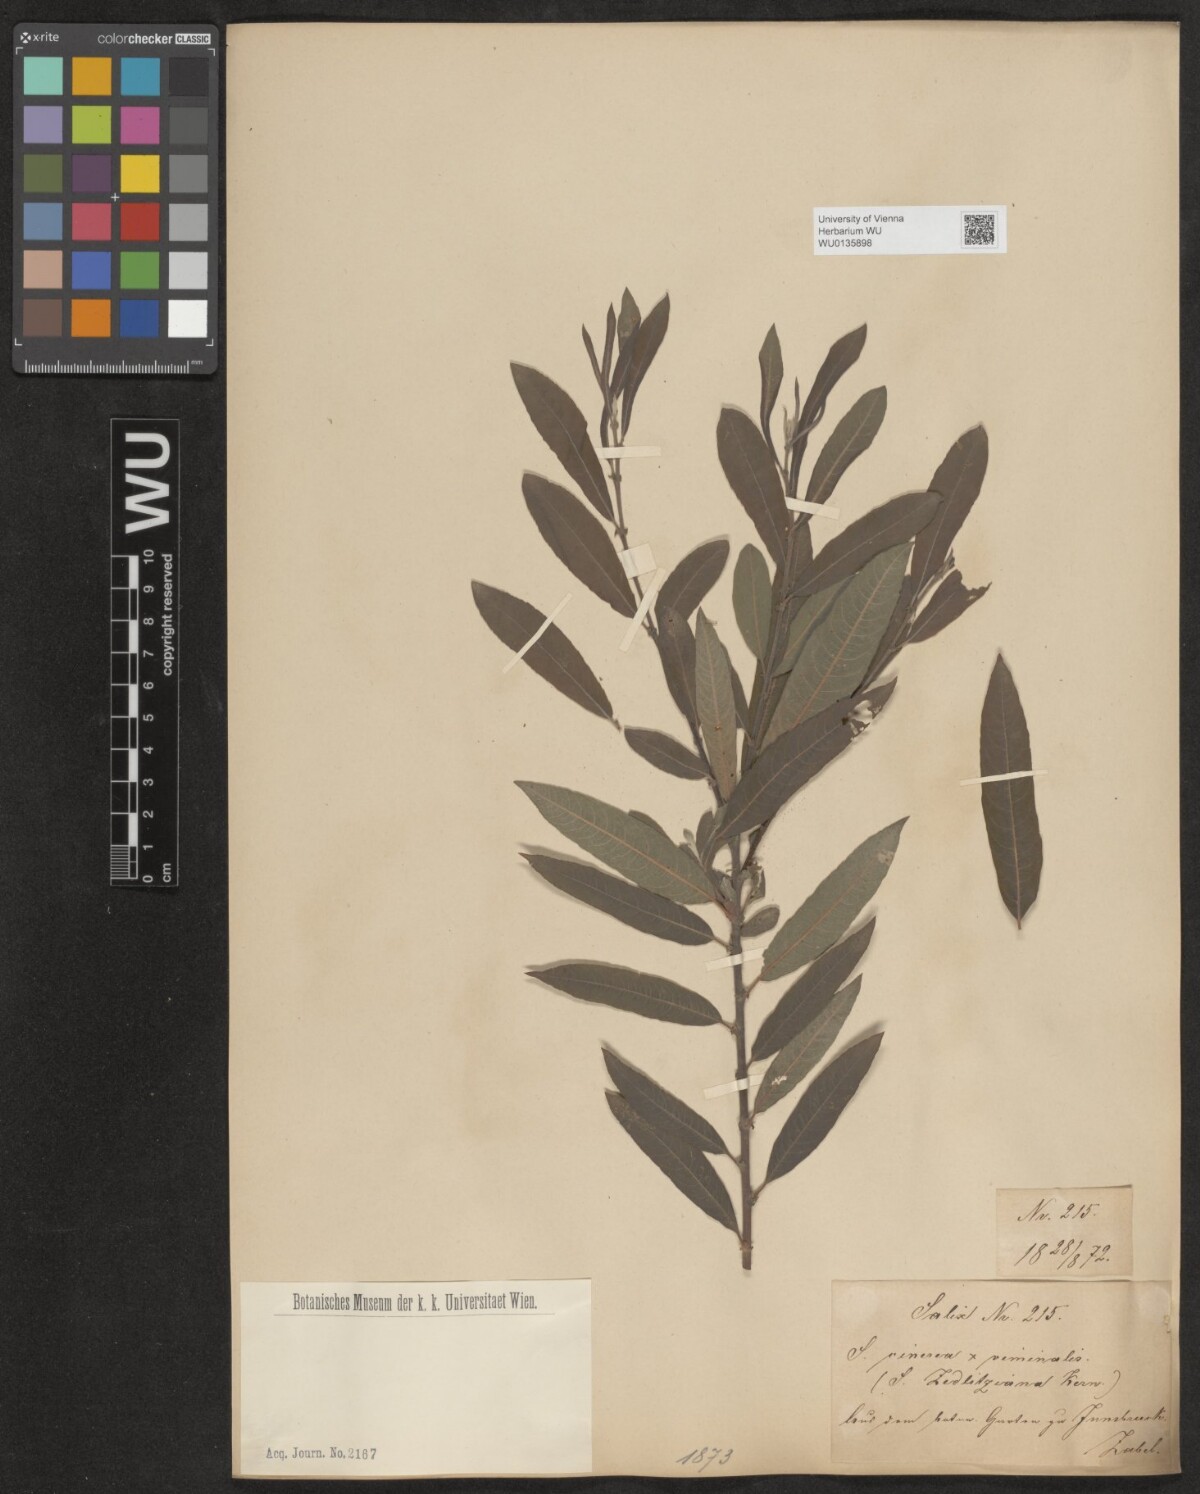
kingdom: Plantae
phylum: Tracheophyta
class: Magnoliopsida
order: Malpighiales
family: Salicaceae
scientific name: Salicaceae
